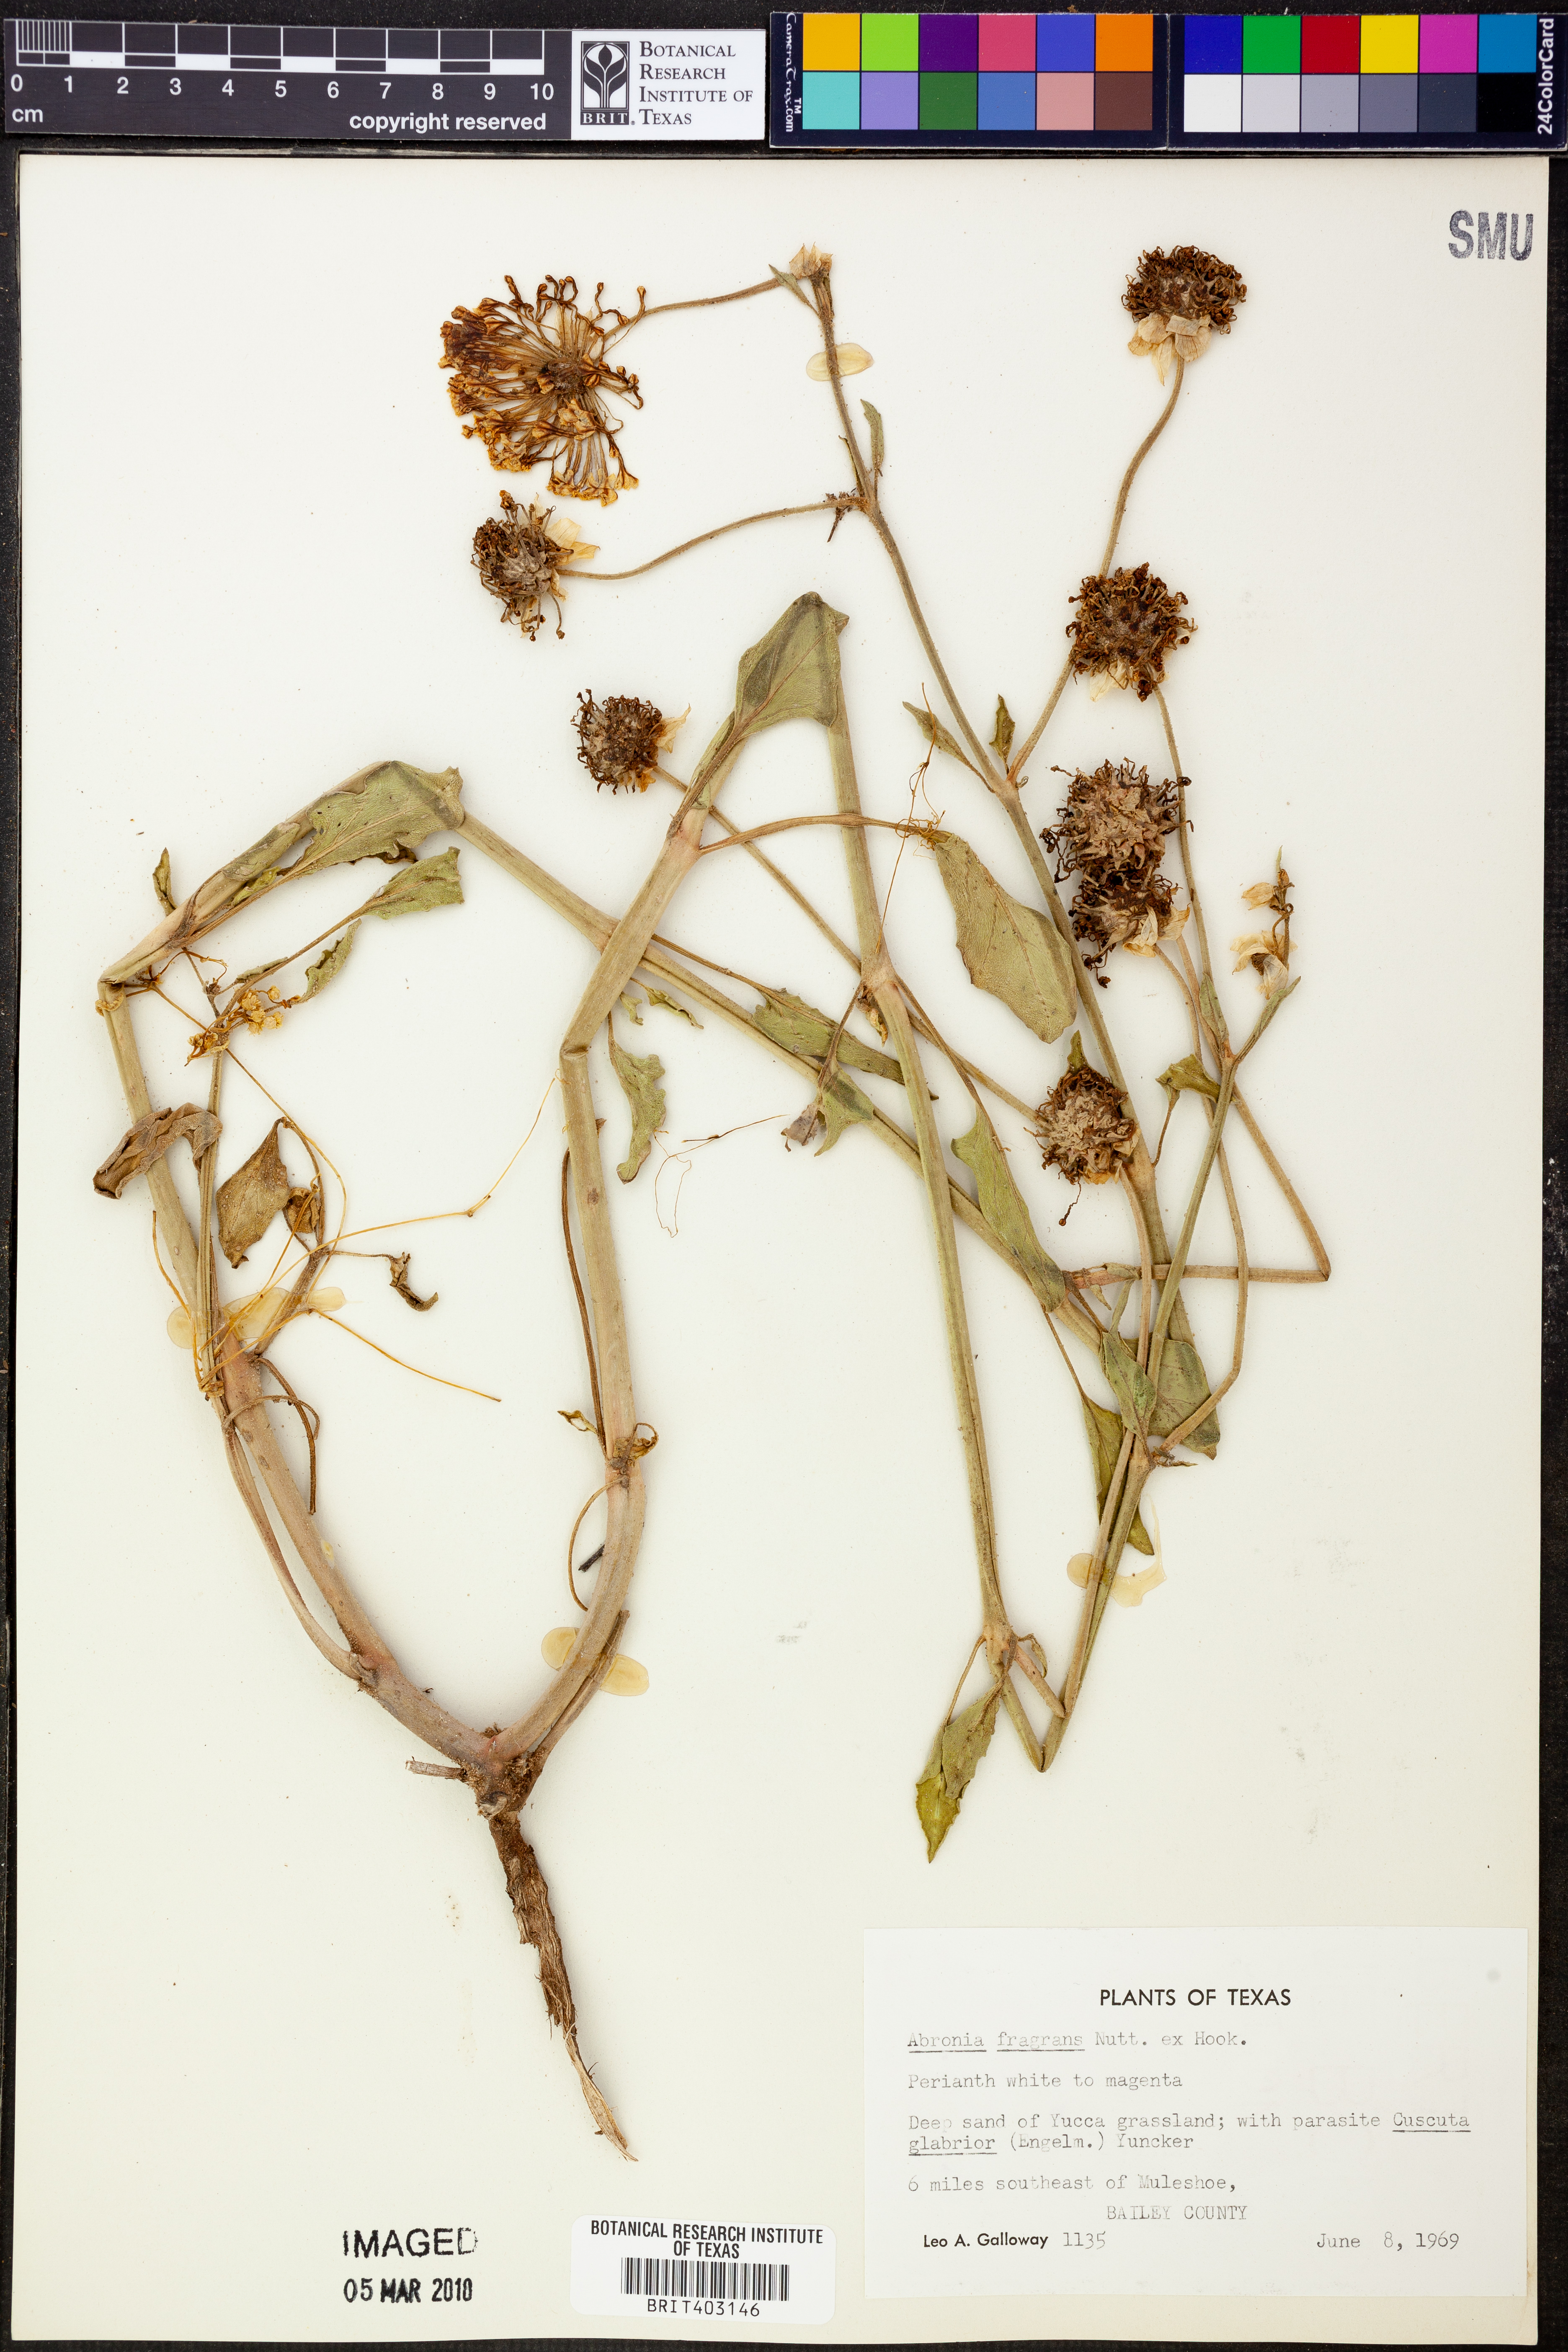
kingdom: Plantae
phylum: Tracheophyta
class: Magnoliopsida
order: Caryophyllales
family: Nyctaginaceae
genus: Abronia
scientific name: Abronia fragrans
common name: Fragrant sand-verbena
